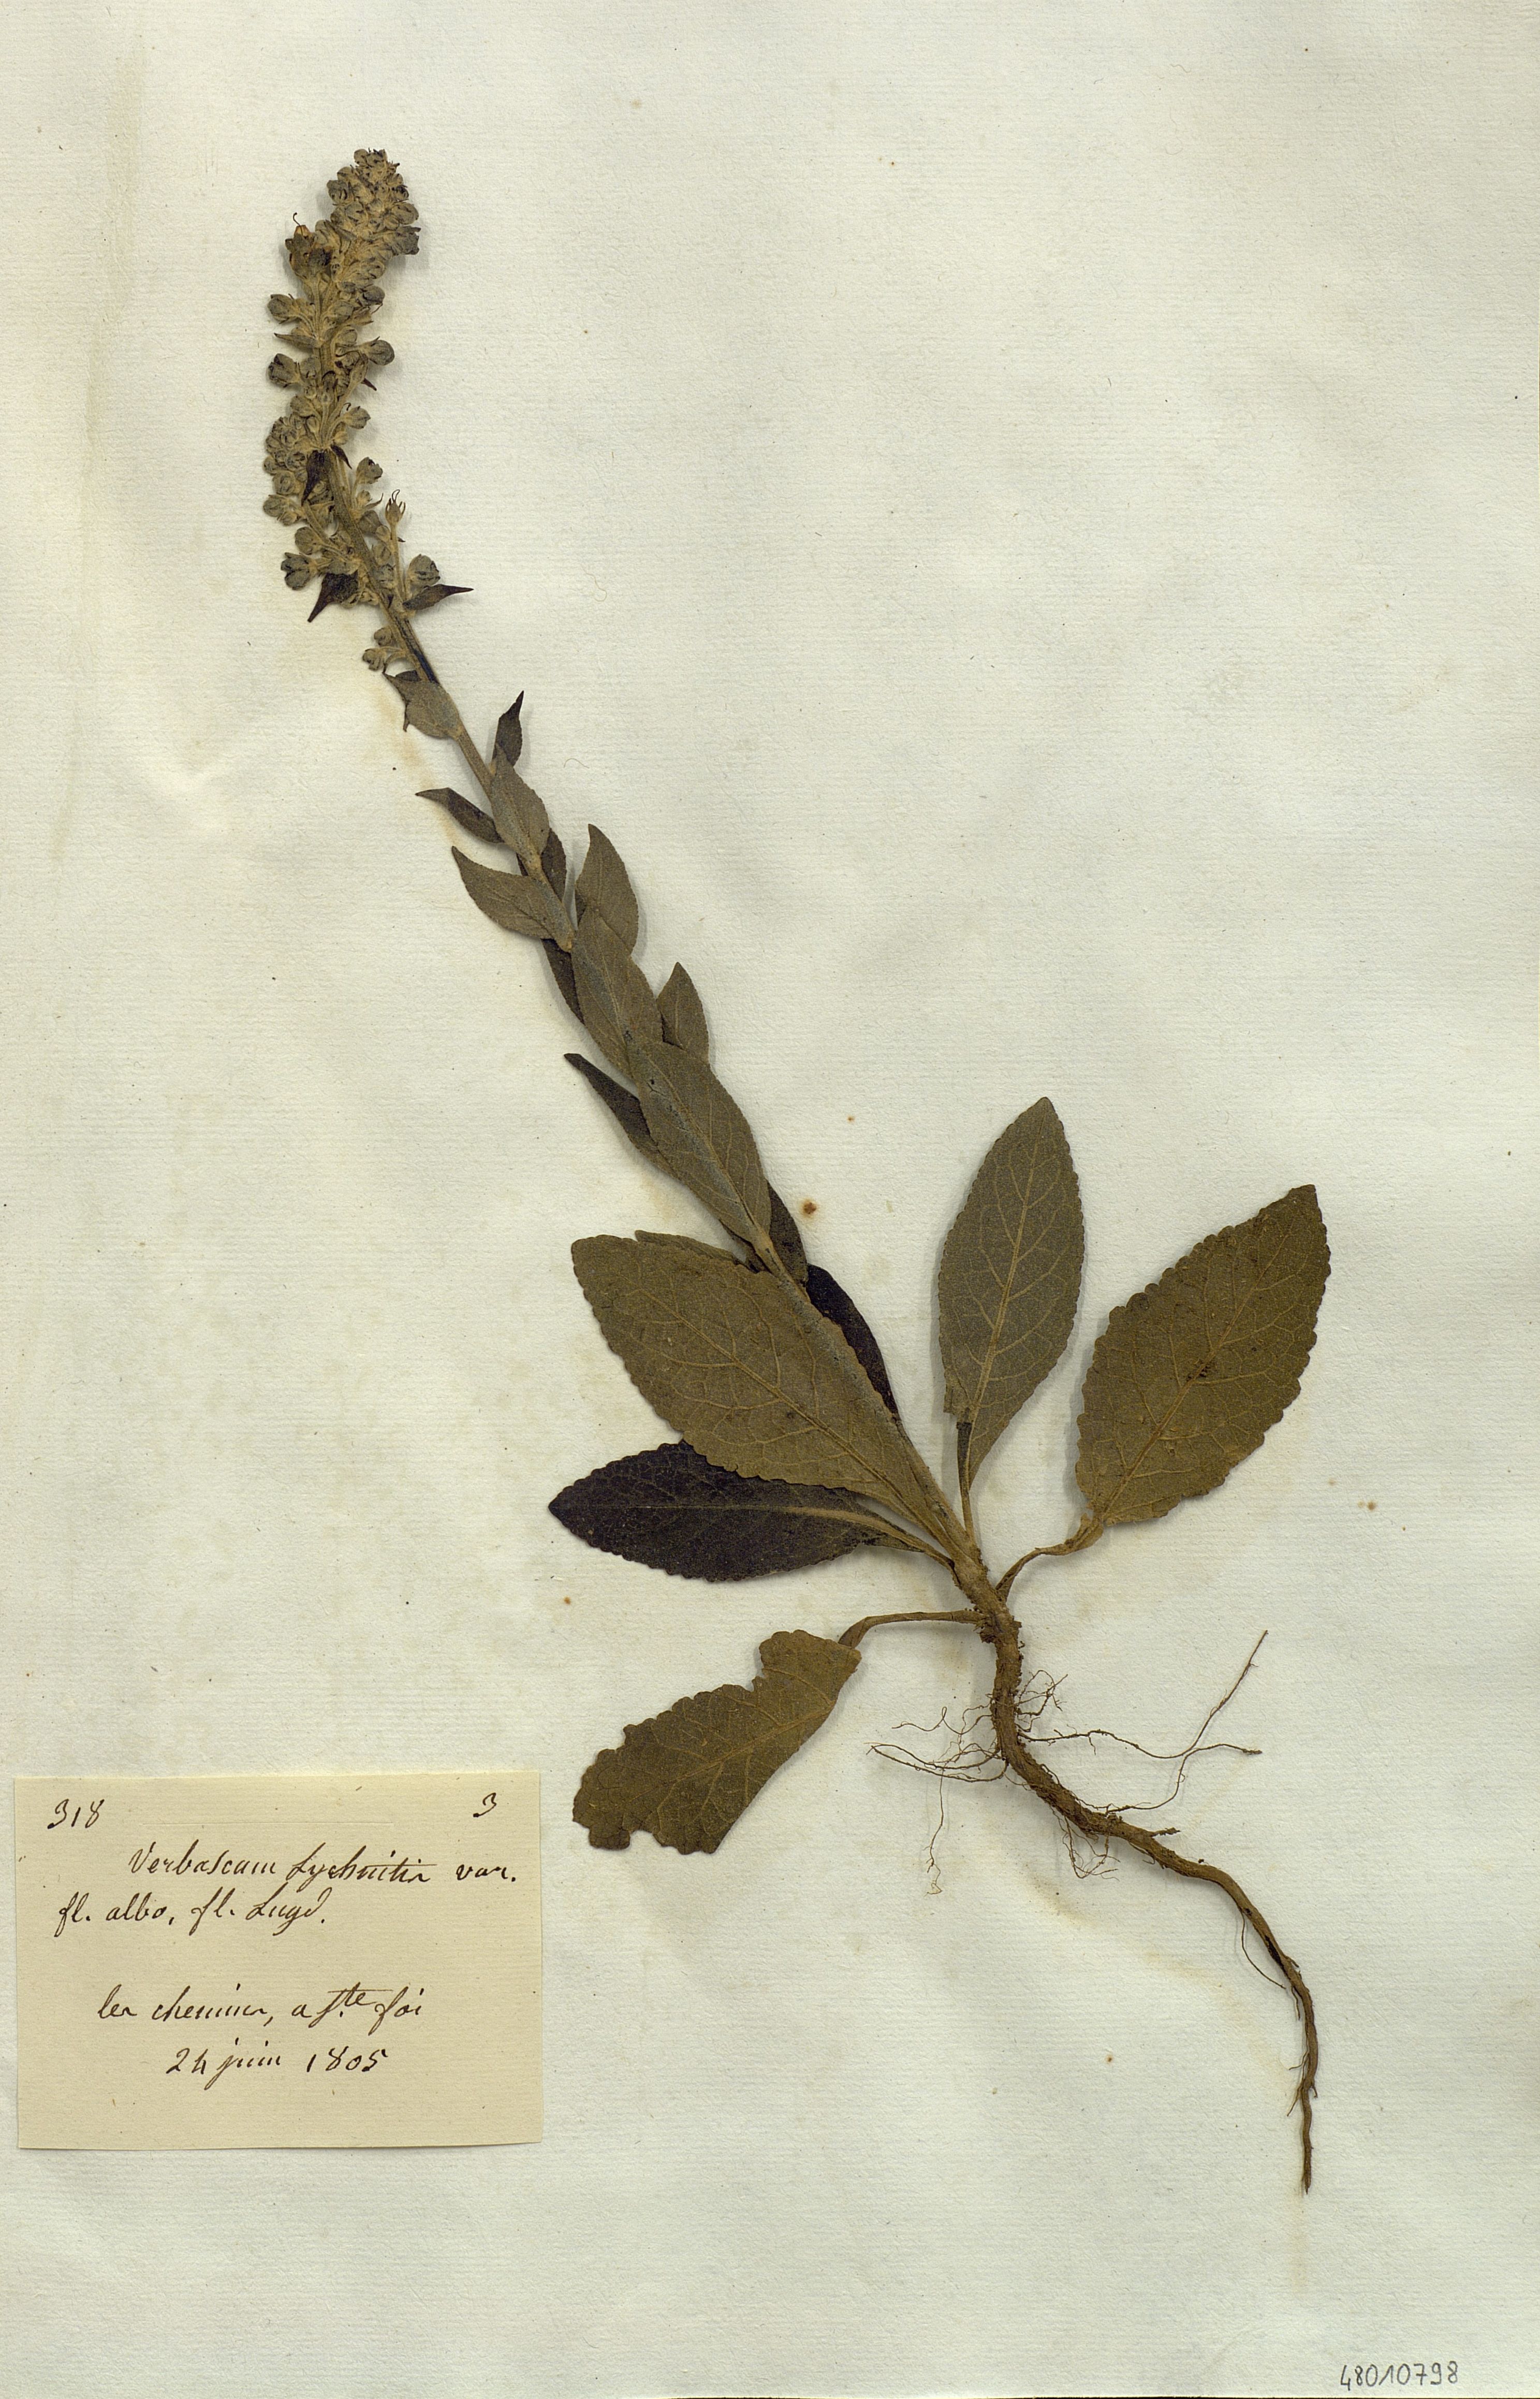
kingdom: Plantae
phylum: Tracheophyta
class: Magnoliopsida
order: Lamiales
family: Scrophulariaceae
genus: Verbascum
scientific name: Verbascum lychnitis
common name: White mullein
